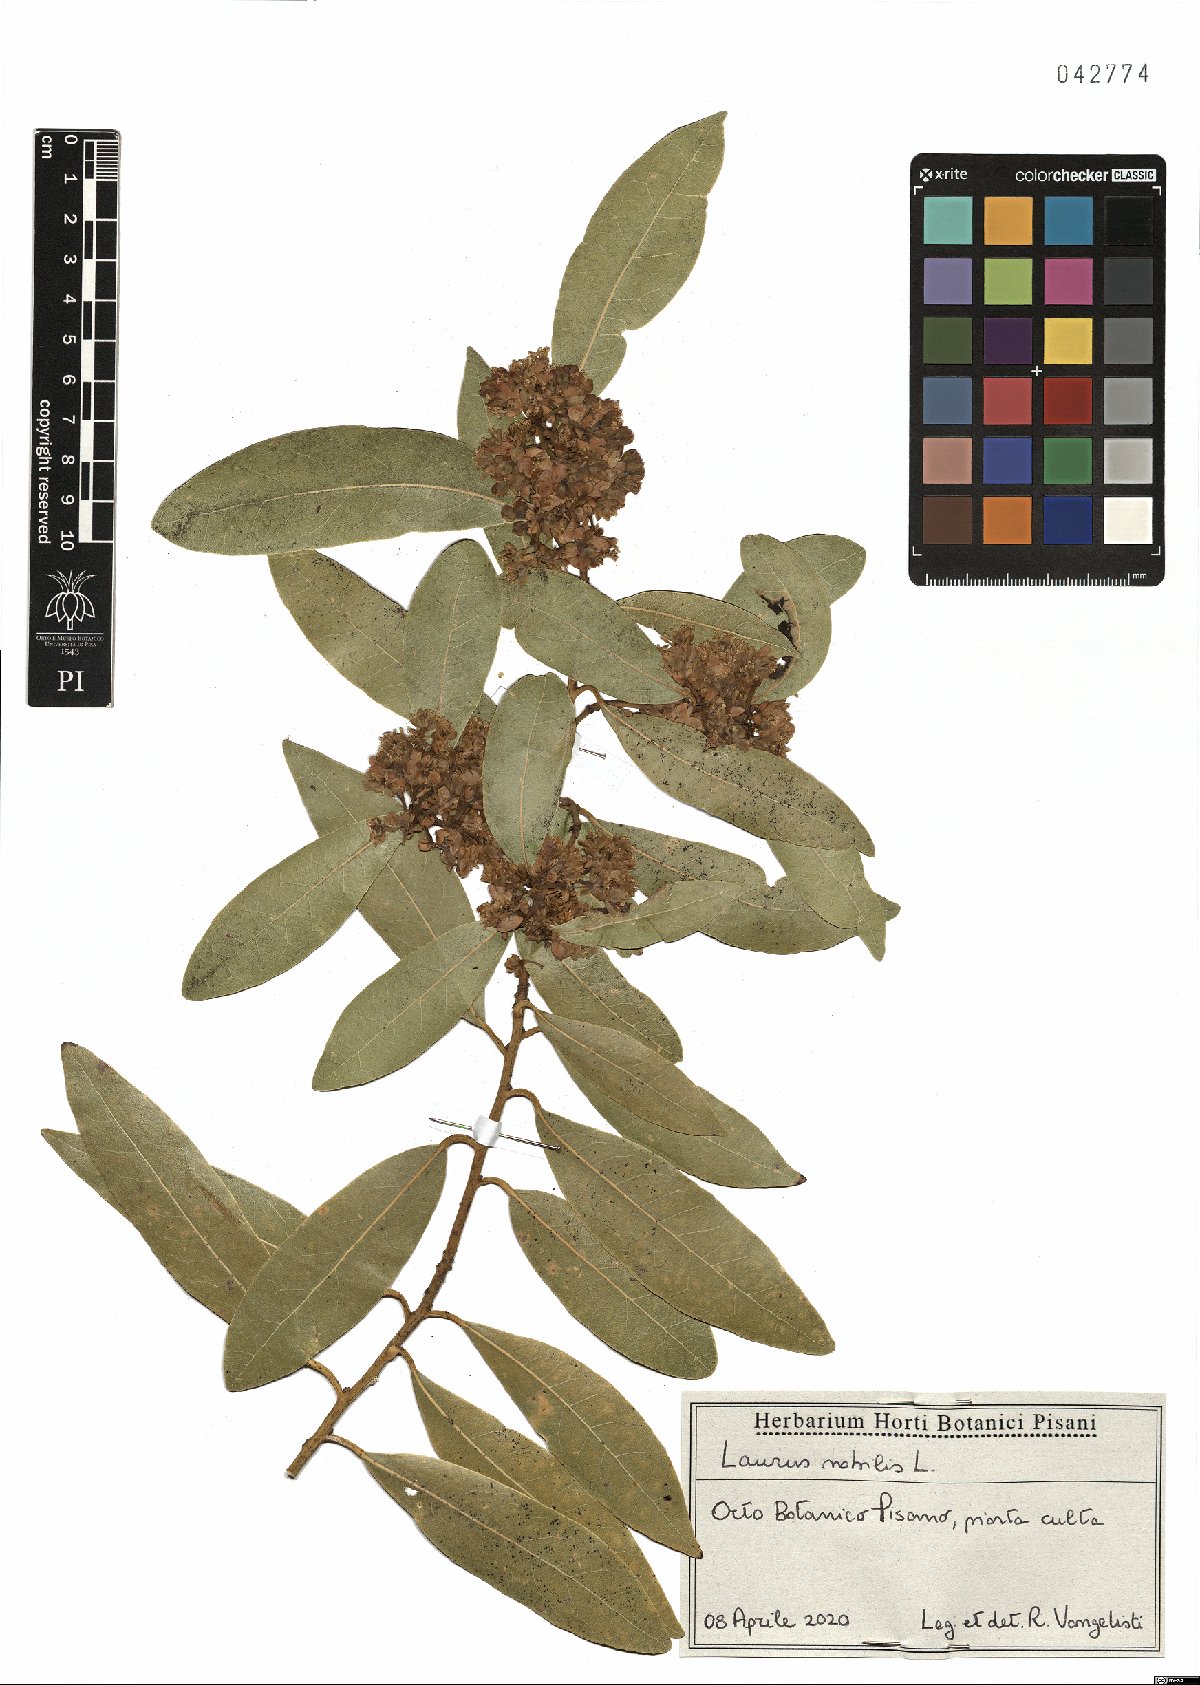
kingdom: Plantae
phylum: Tracheophyta
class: Magnoliopsida
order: Laurales
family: Lauraceae
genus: Laurus
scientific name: Laurus nobilis
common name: Bay
